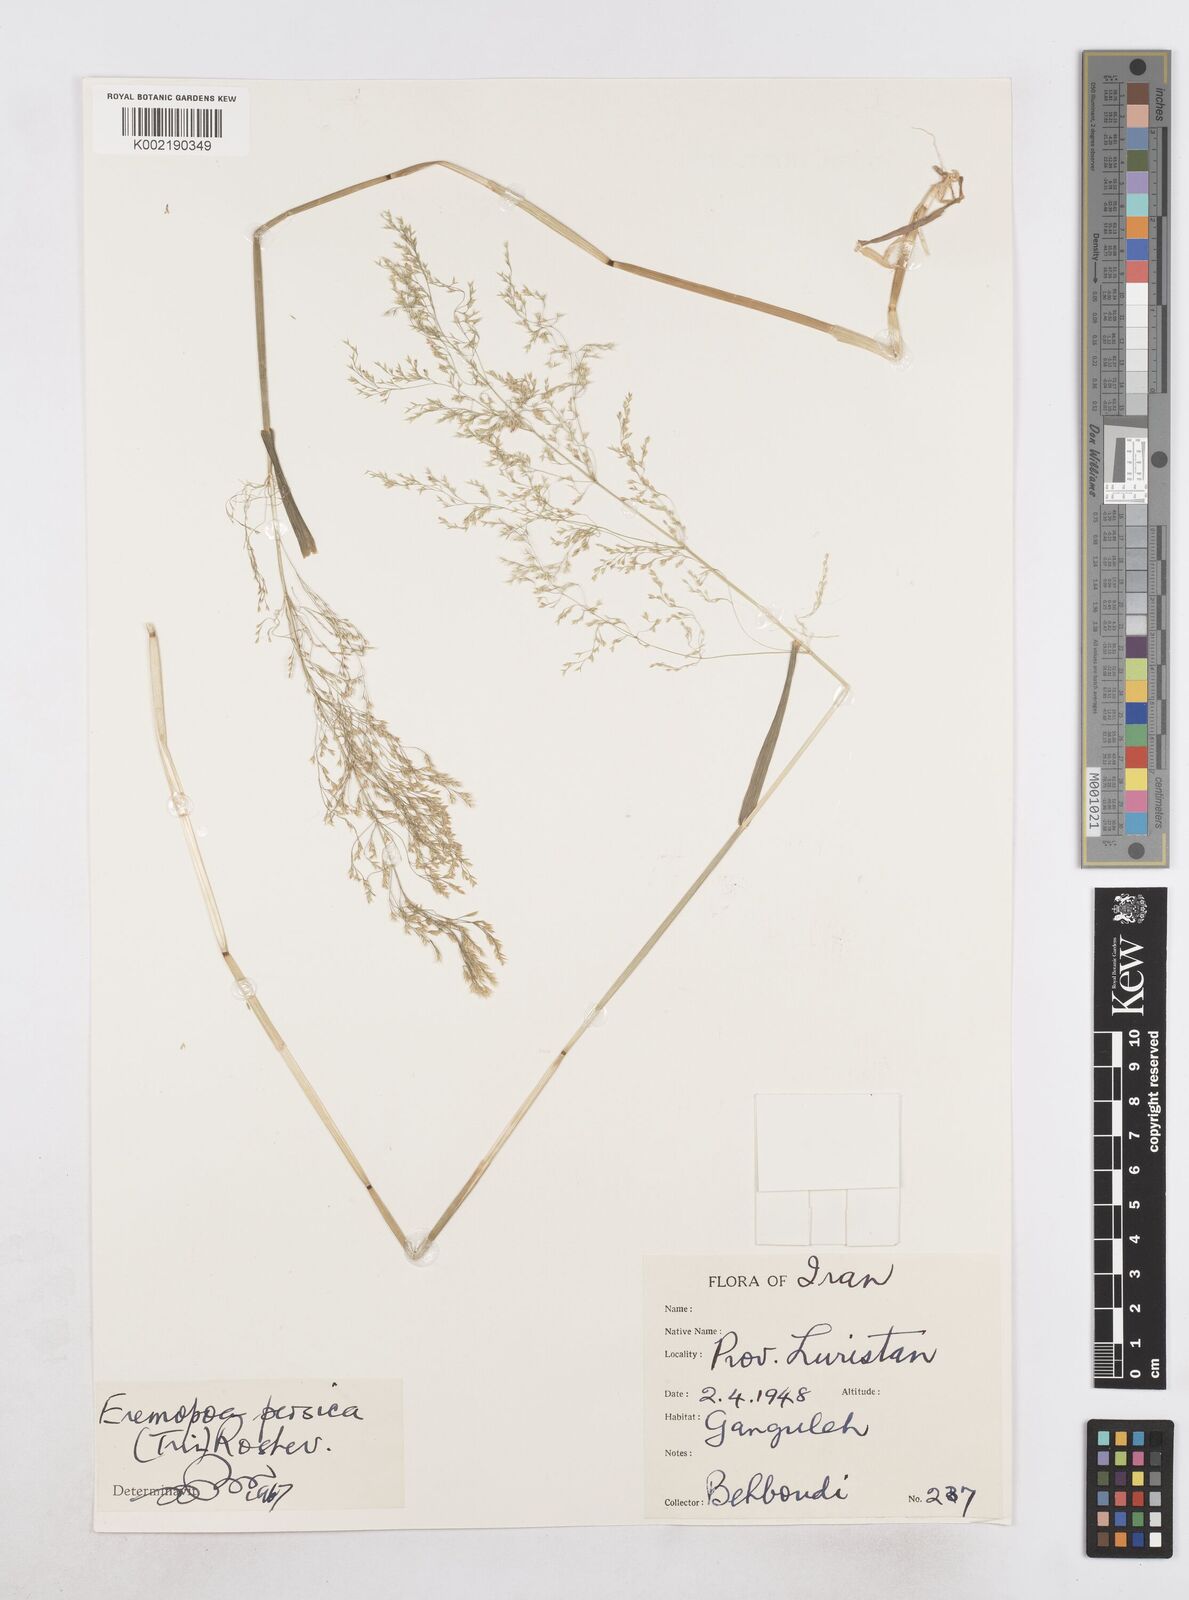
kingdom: Plantae
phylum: Tracheophyta
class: Liliopsida
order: Poales
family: Poaceae
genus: Poa
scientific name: Poa persica
